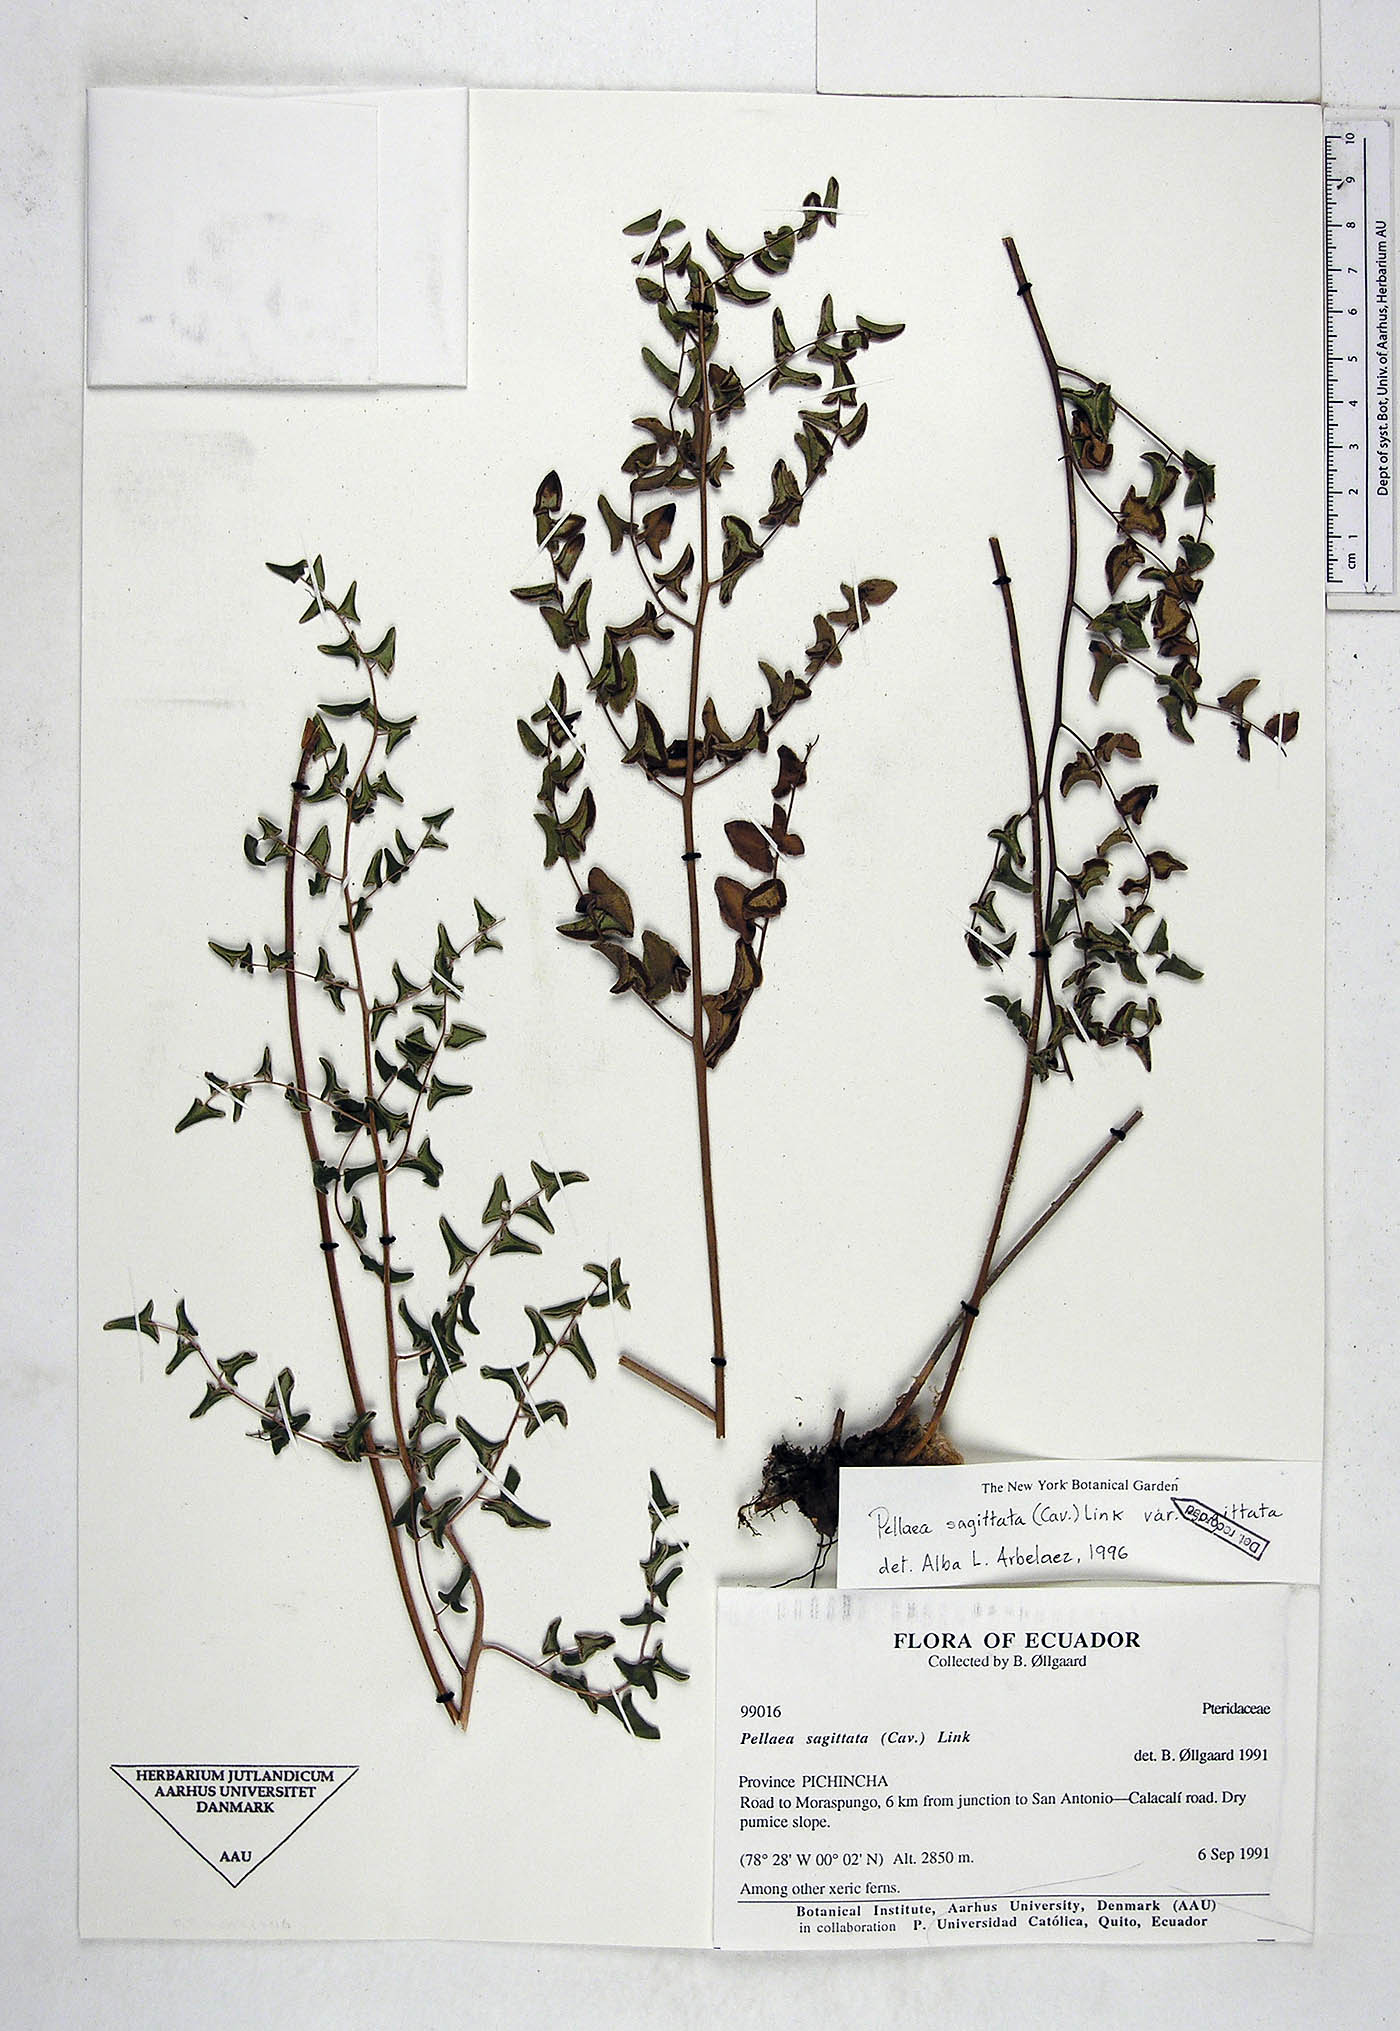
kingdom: Plantae
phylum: Tracheophyta
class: Polypodiopsida
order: Polypodiales
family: Pteridaceae
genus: Pellaea
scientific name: Pellaea sagittata
